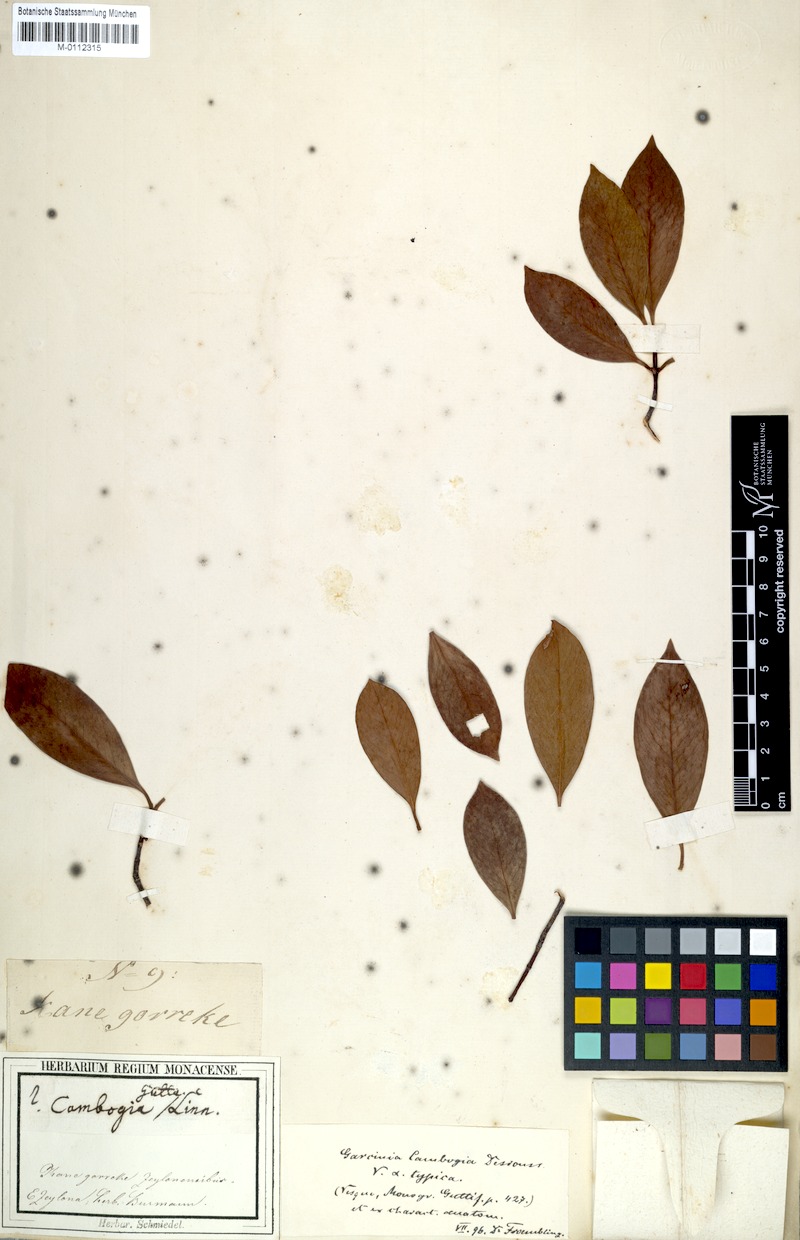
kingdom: Plantae
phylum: Tracheophyta
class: Magnoliopsida
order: Malpighiales
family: Clusiaceae
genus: Garcinia
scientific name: Garcinia gummi-gutta
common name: Malabar tamarind
